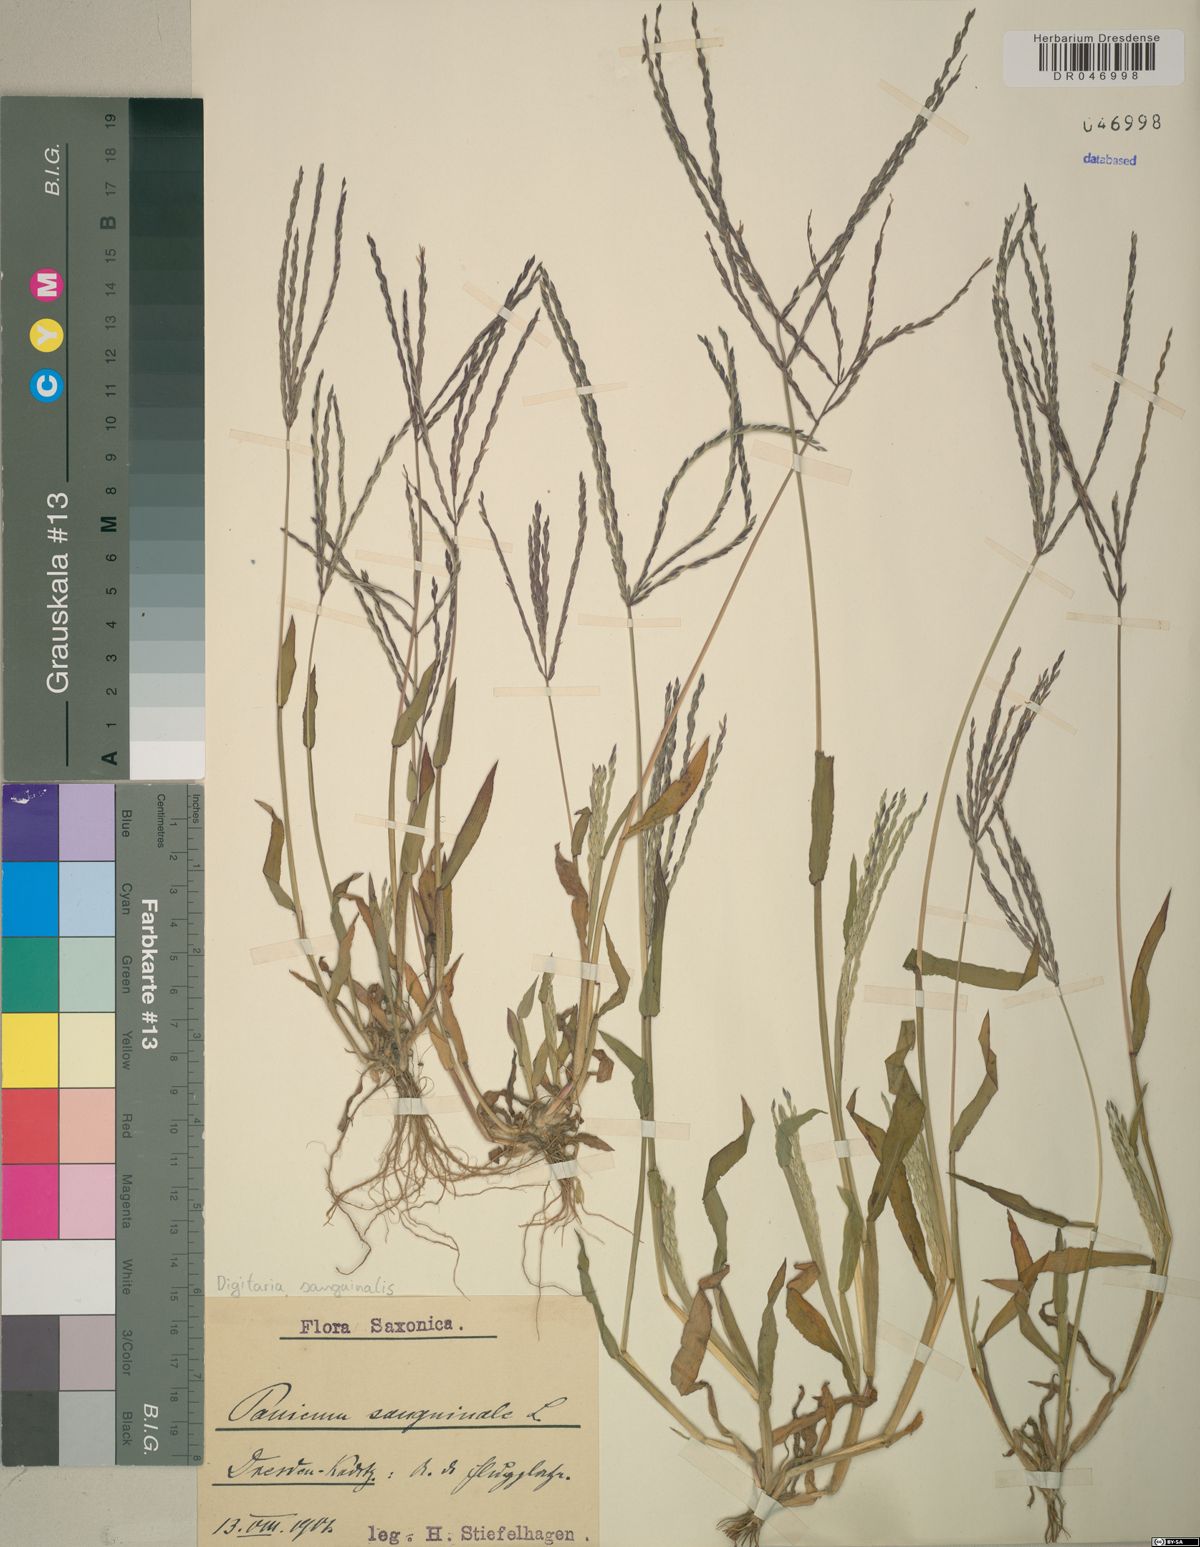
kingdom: Plantae
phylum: Tracheophyta
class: Liliopsida
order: Poales
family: Poaceae
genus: Digitaria
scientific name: Digitaria sanguinalis
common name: Hairy crabgrass
